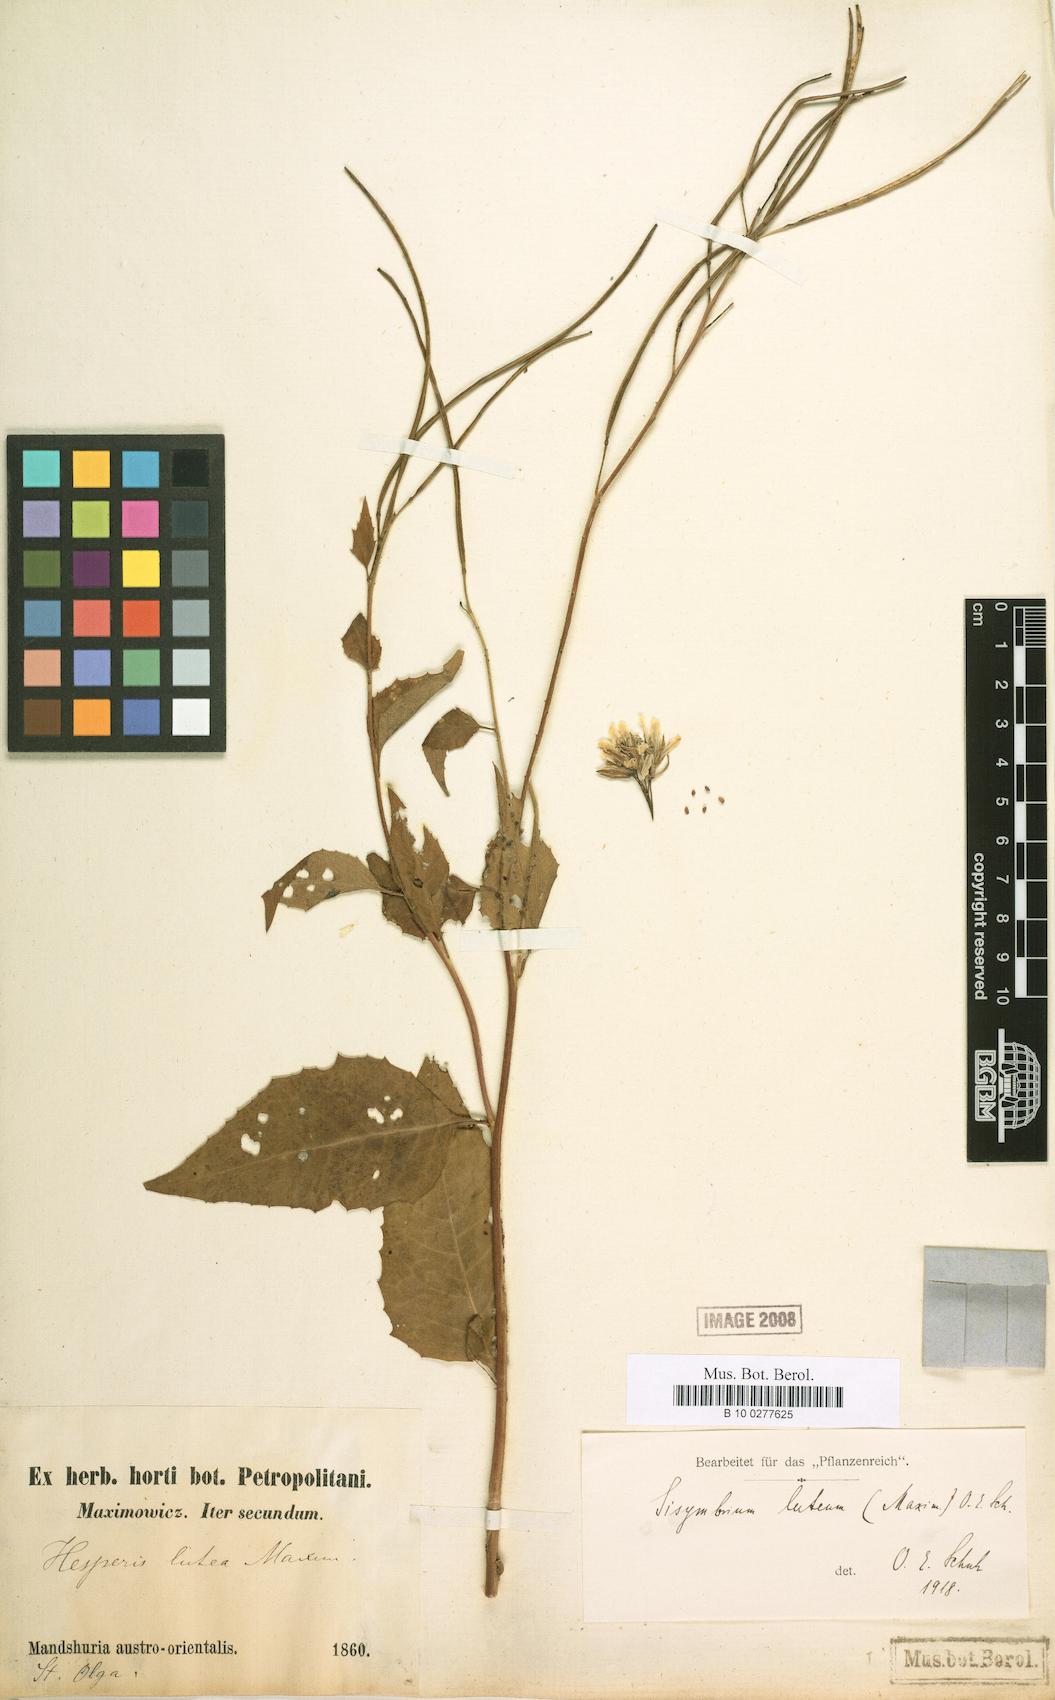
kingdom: Plantae
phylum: Tracheophyta
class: Magnoliopsida
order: Brassicales
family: Brassicaceae
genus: Sisymbrium
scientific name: Sisymbrium luteum
